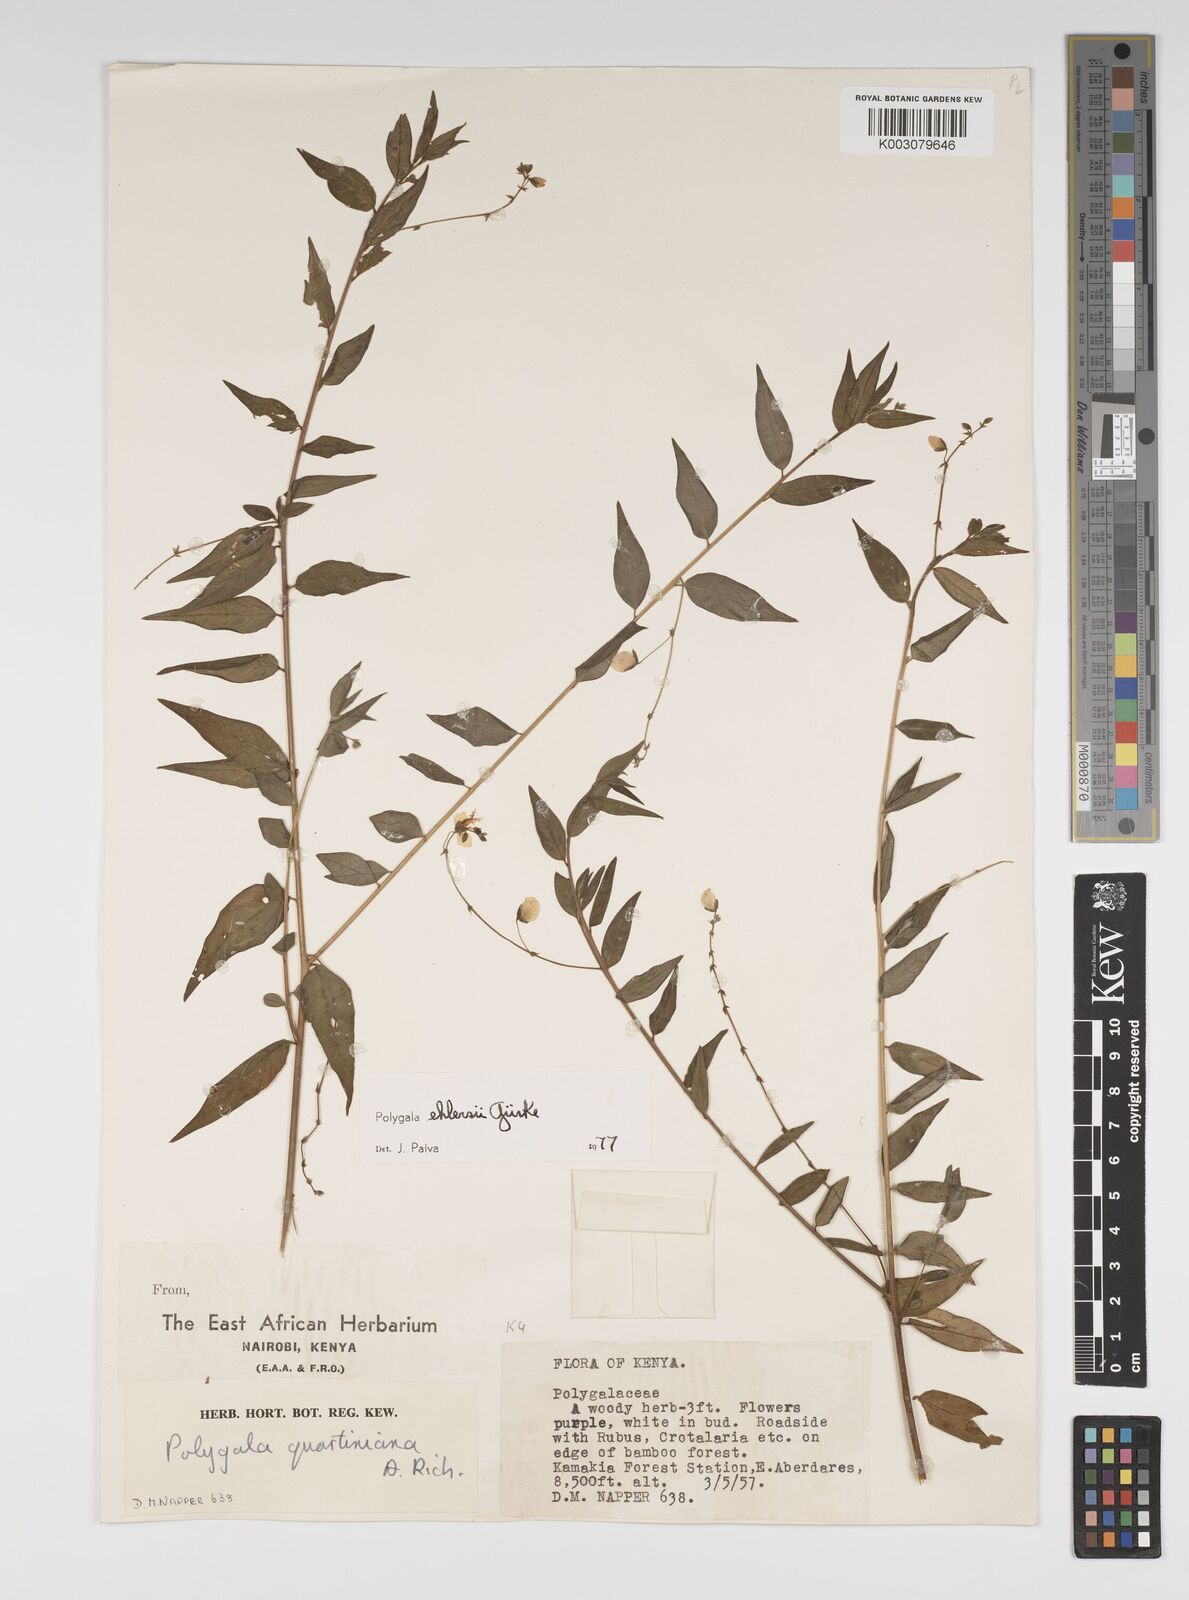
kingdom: Plantae
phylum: Tracheophyta
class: Magnoliopsida
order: Fabales
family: Polygalaceae
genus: Polygala
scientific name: Polygala ehlersii
